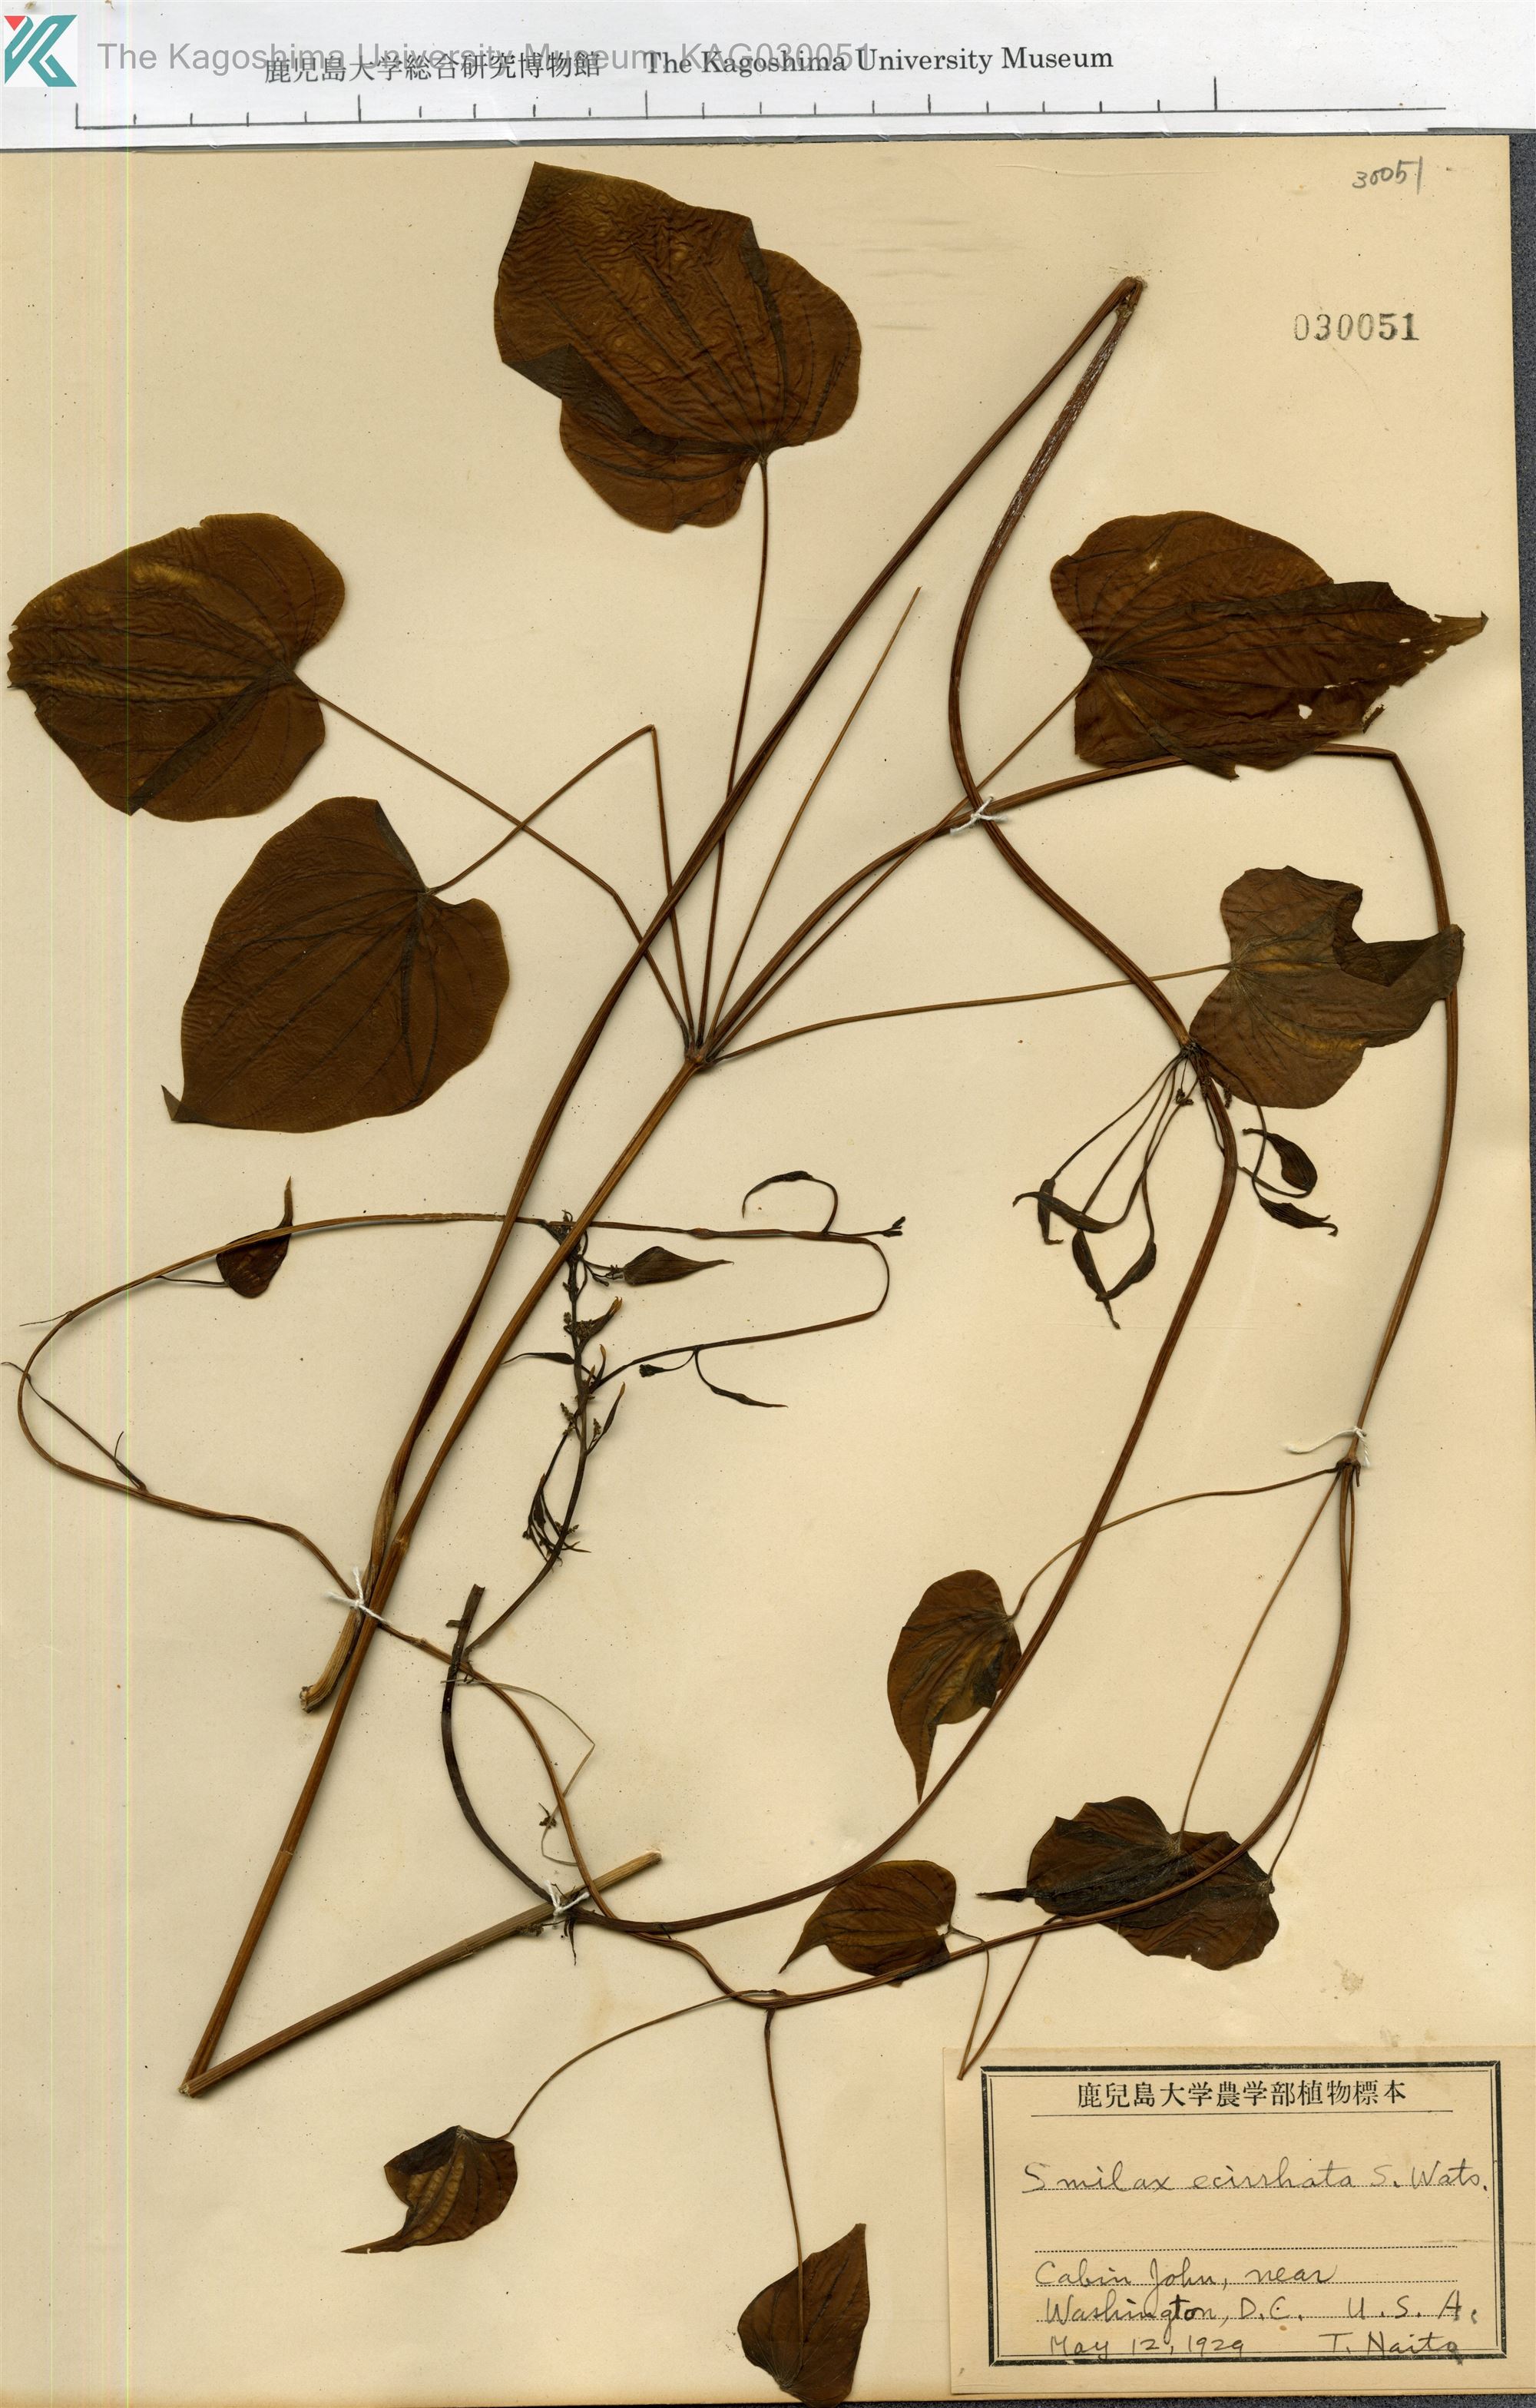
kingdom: Plantae
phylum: Tracheophyta
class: Liliopsida
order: Dioscoreales
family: Dioscoreaceae
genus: Dioscorea
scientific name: Dioscorea
